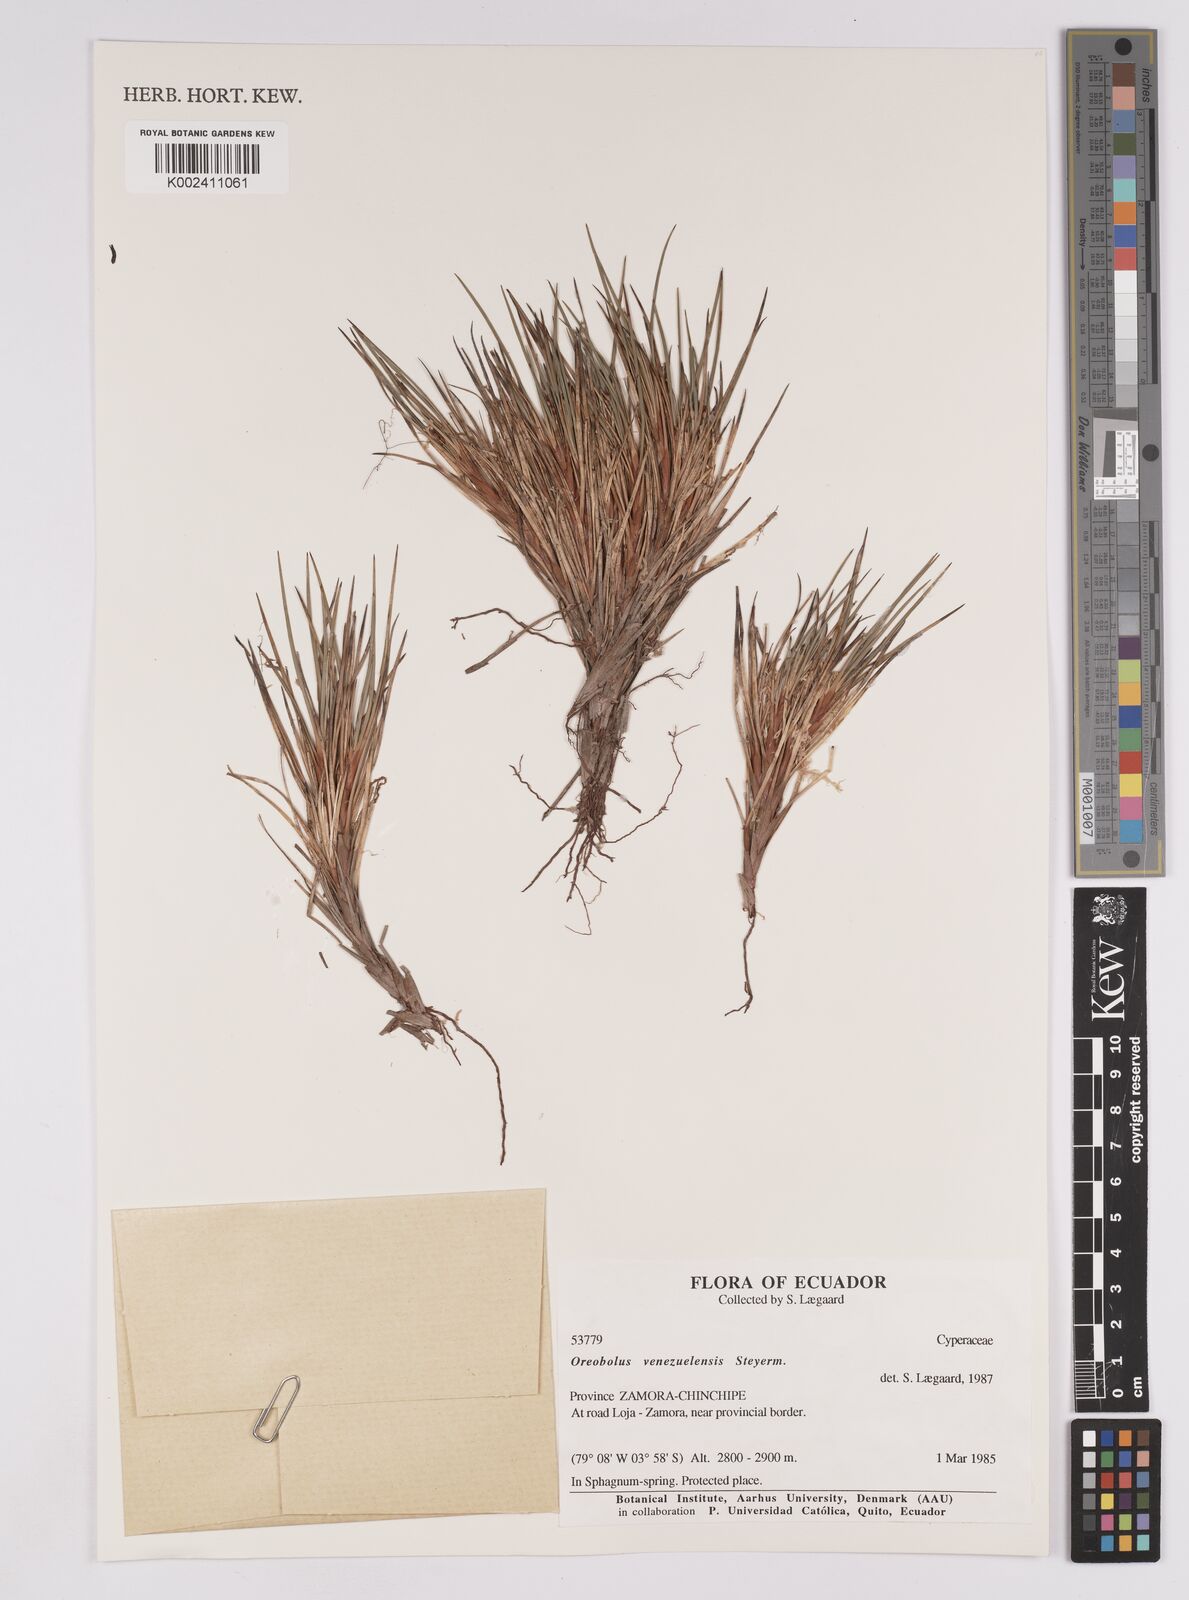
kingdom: Plantae
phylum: Tracheophyta
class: Liliopsida
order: Poales
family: Cyperaceae
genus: Oreobolus
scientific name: Oreobolus venezuelensis
